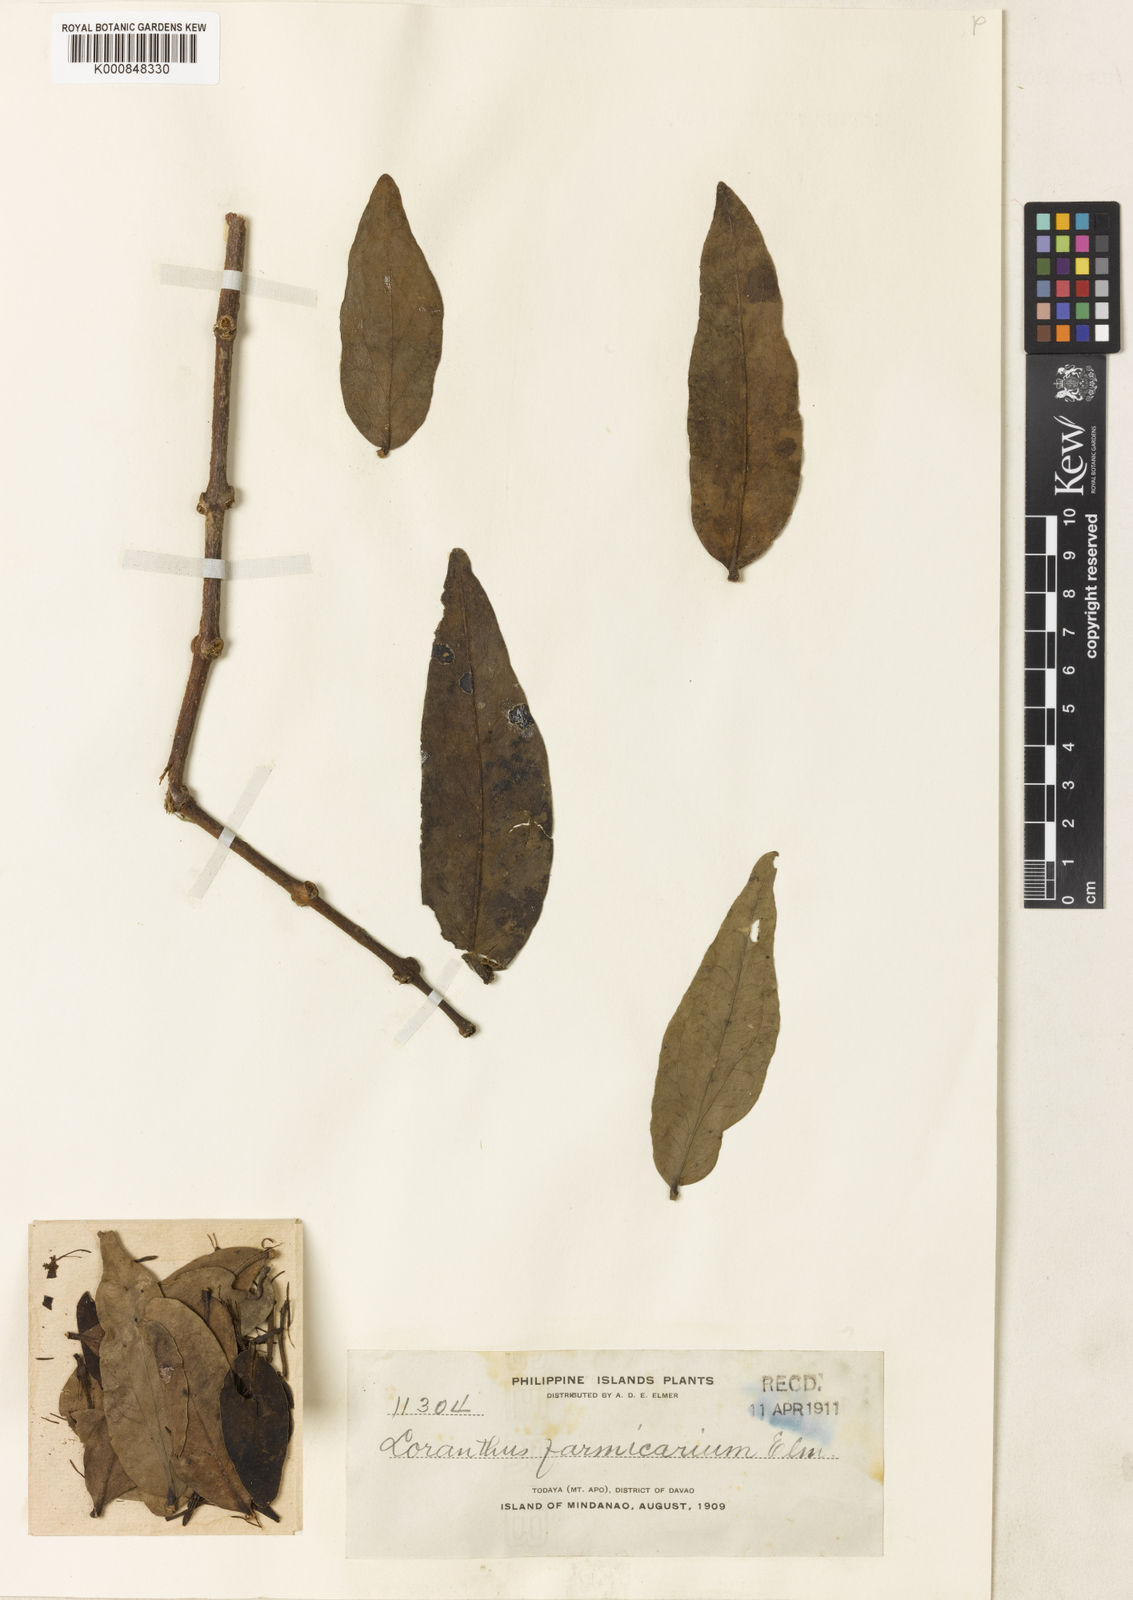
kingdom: Plantae
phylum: Tracheophyta
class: Magnoliopsida
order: Santalales
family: Loranthaceae
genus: Decaisnina
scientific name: Decaisnina sumbawensis
